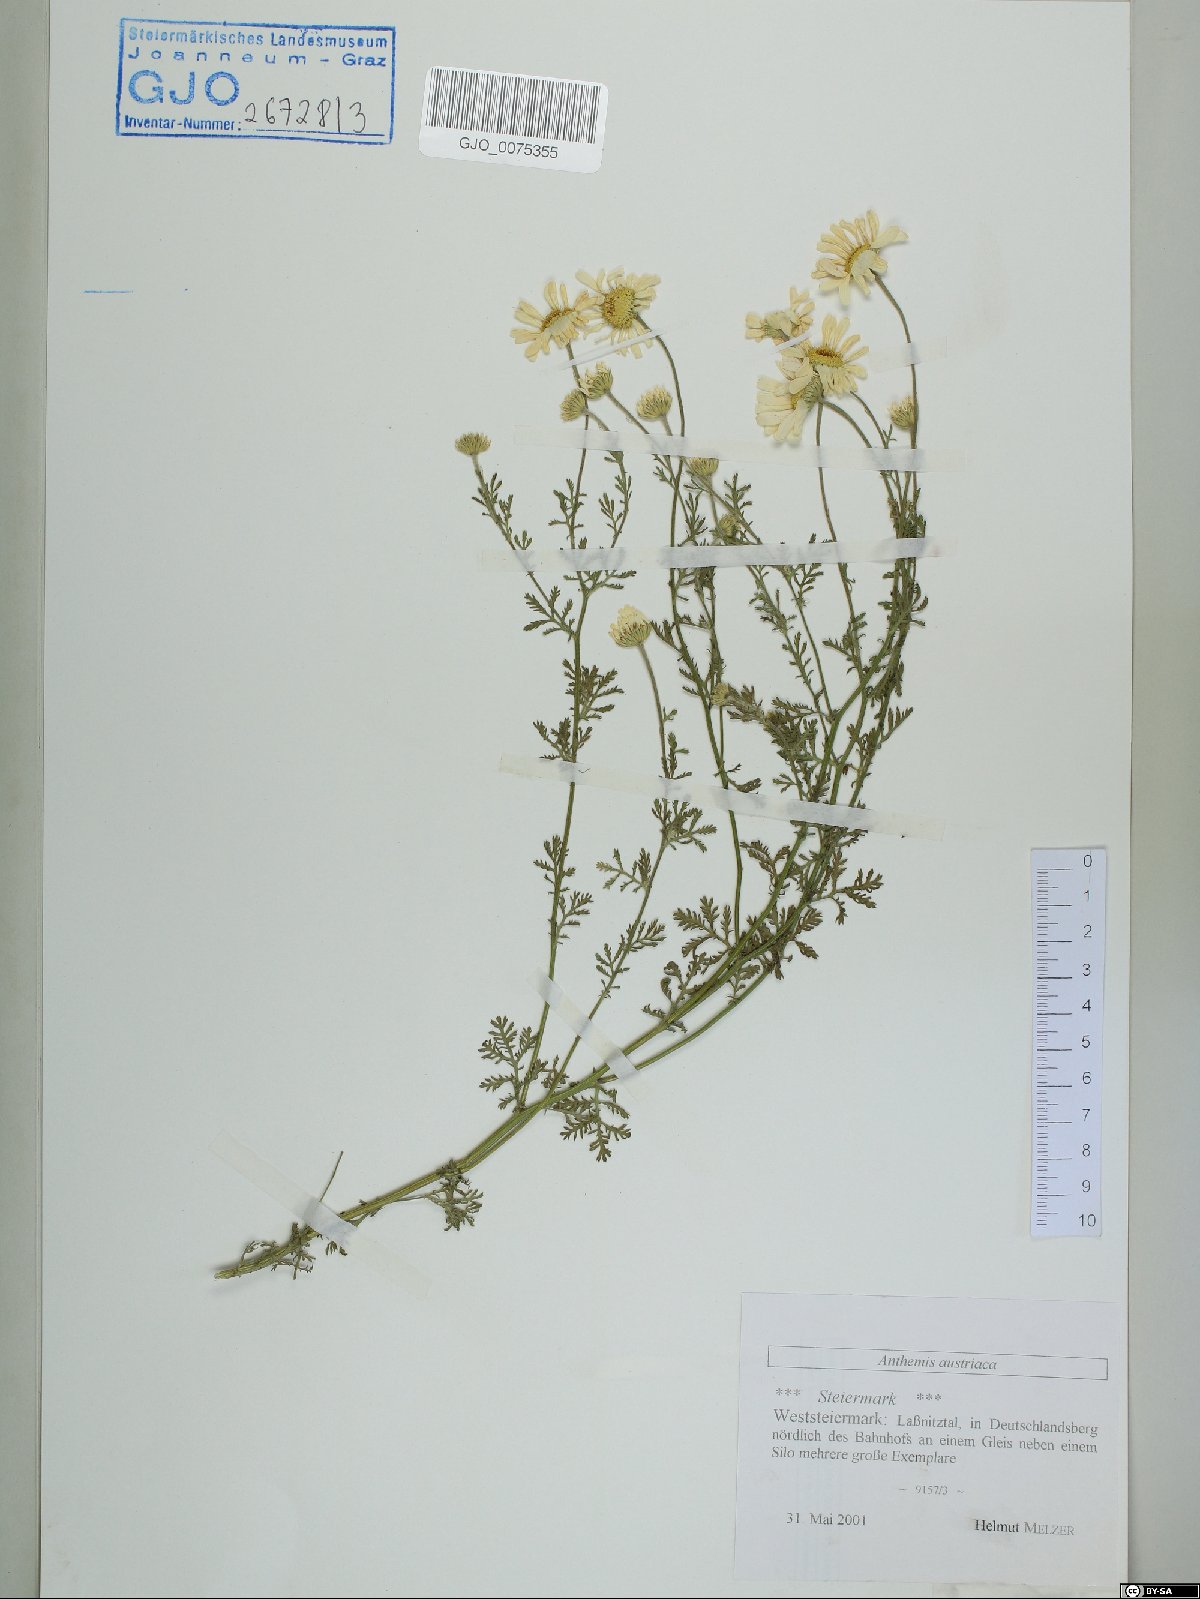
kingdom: Plantae
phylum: Tracheophyta
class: Magnoliopsida
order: Asterales
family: Asteraceae
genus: Cota
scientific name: Cota austriaca
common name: Austrian chamomile
